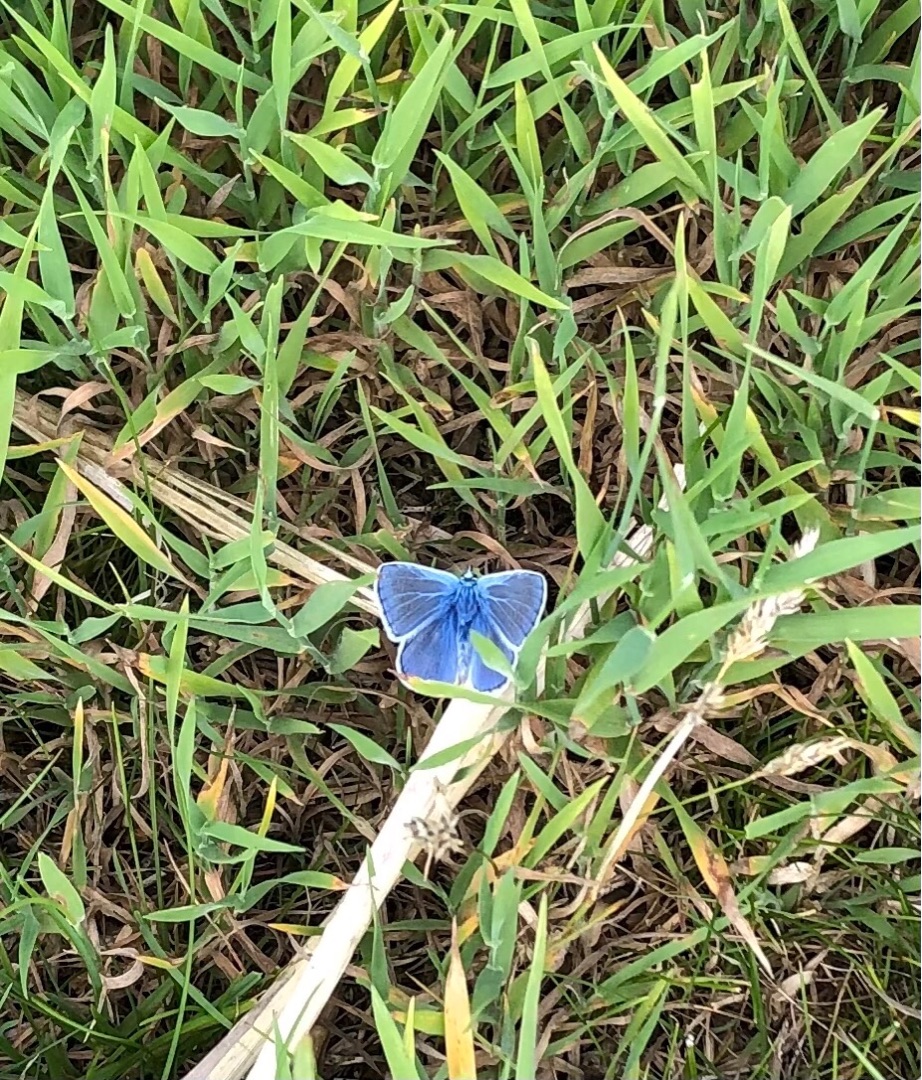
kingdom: Animalia
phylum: Arthropoda
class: Insecta
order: Lepidoptera
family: Lycaenidae
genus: Polyommatus
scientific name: Polyommatus icarus
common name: Almindelig blåfugl
